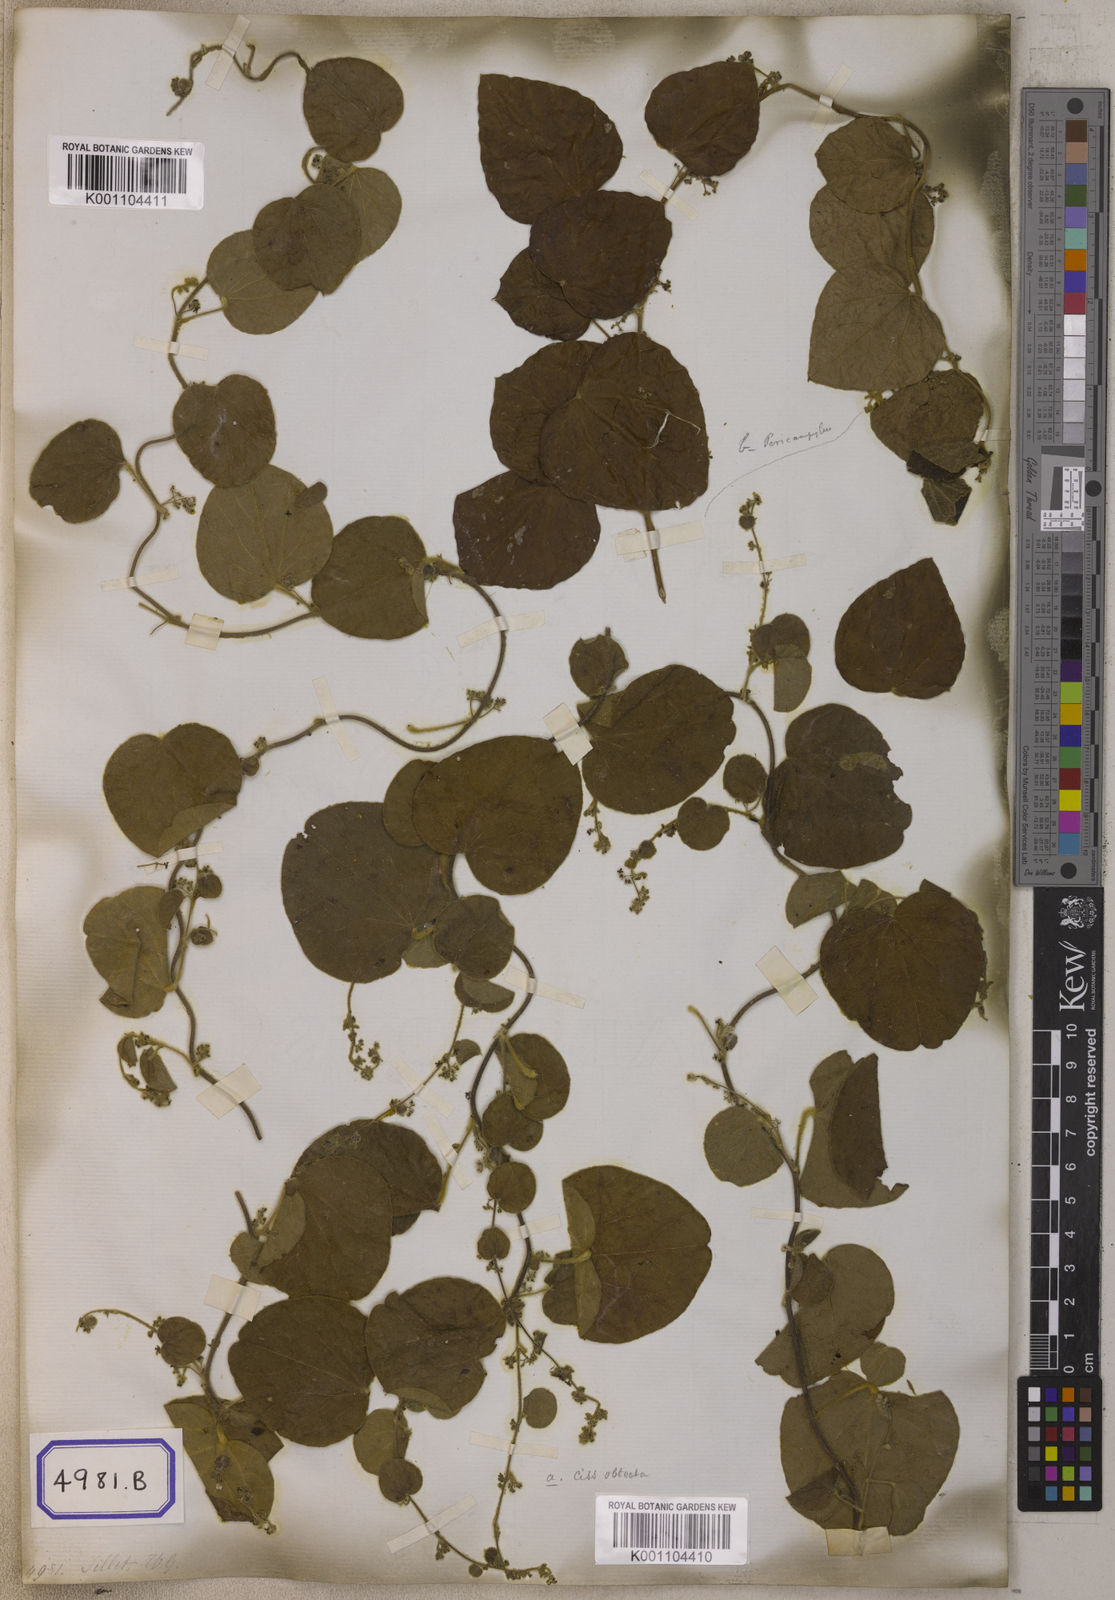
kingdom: Plantae
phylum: Tracheophyta
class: Magnoliopsida
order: Ranunculales
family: Menispermaceae
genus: Cissampelos
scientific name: Cissampelos
